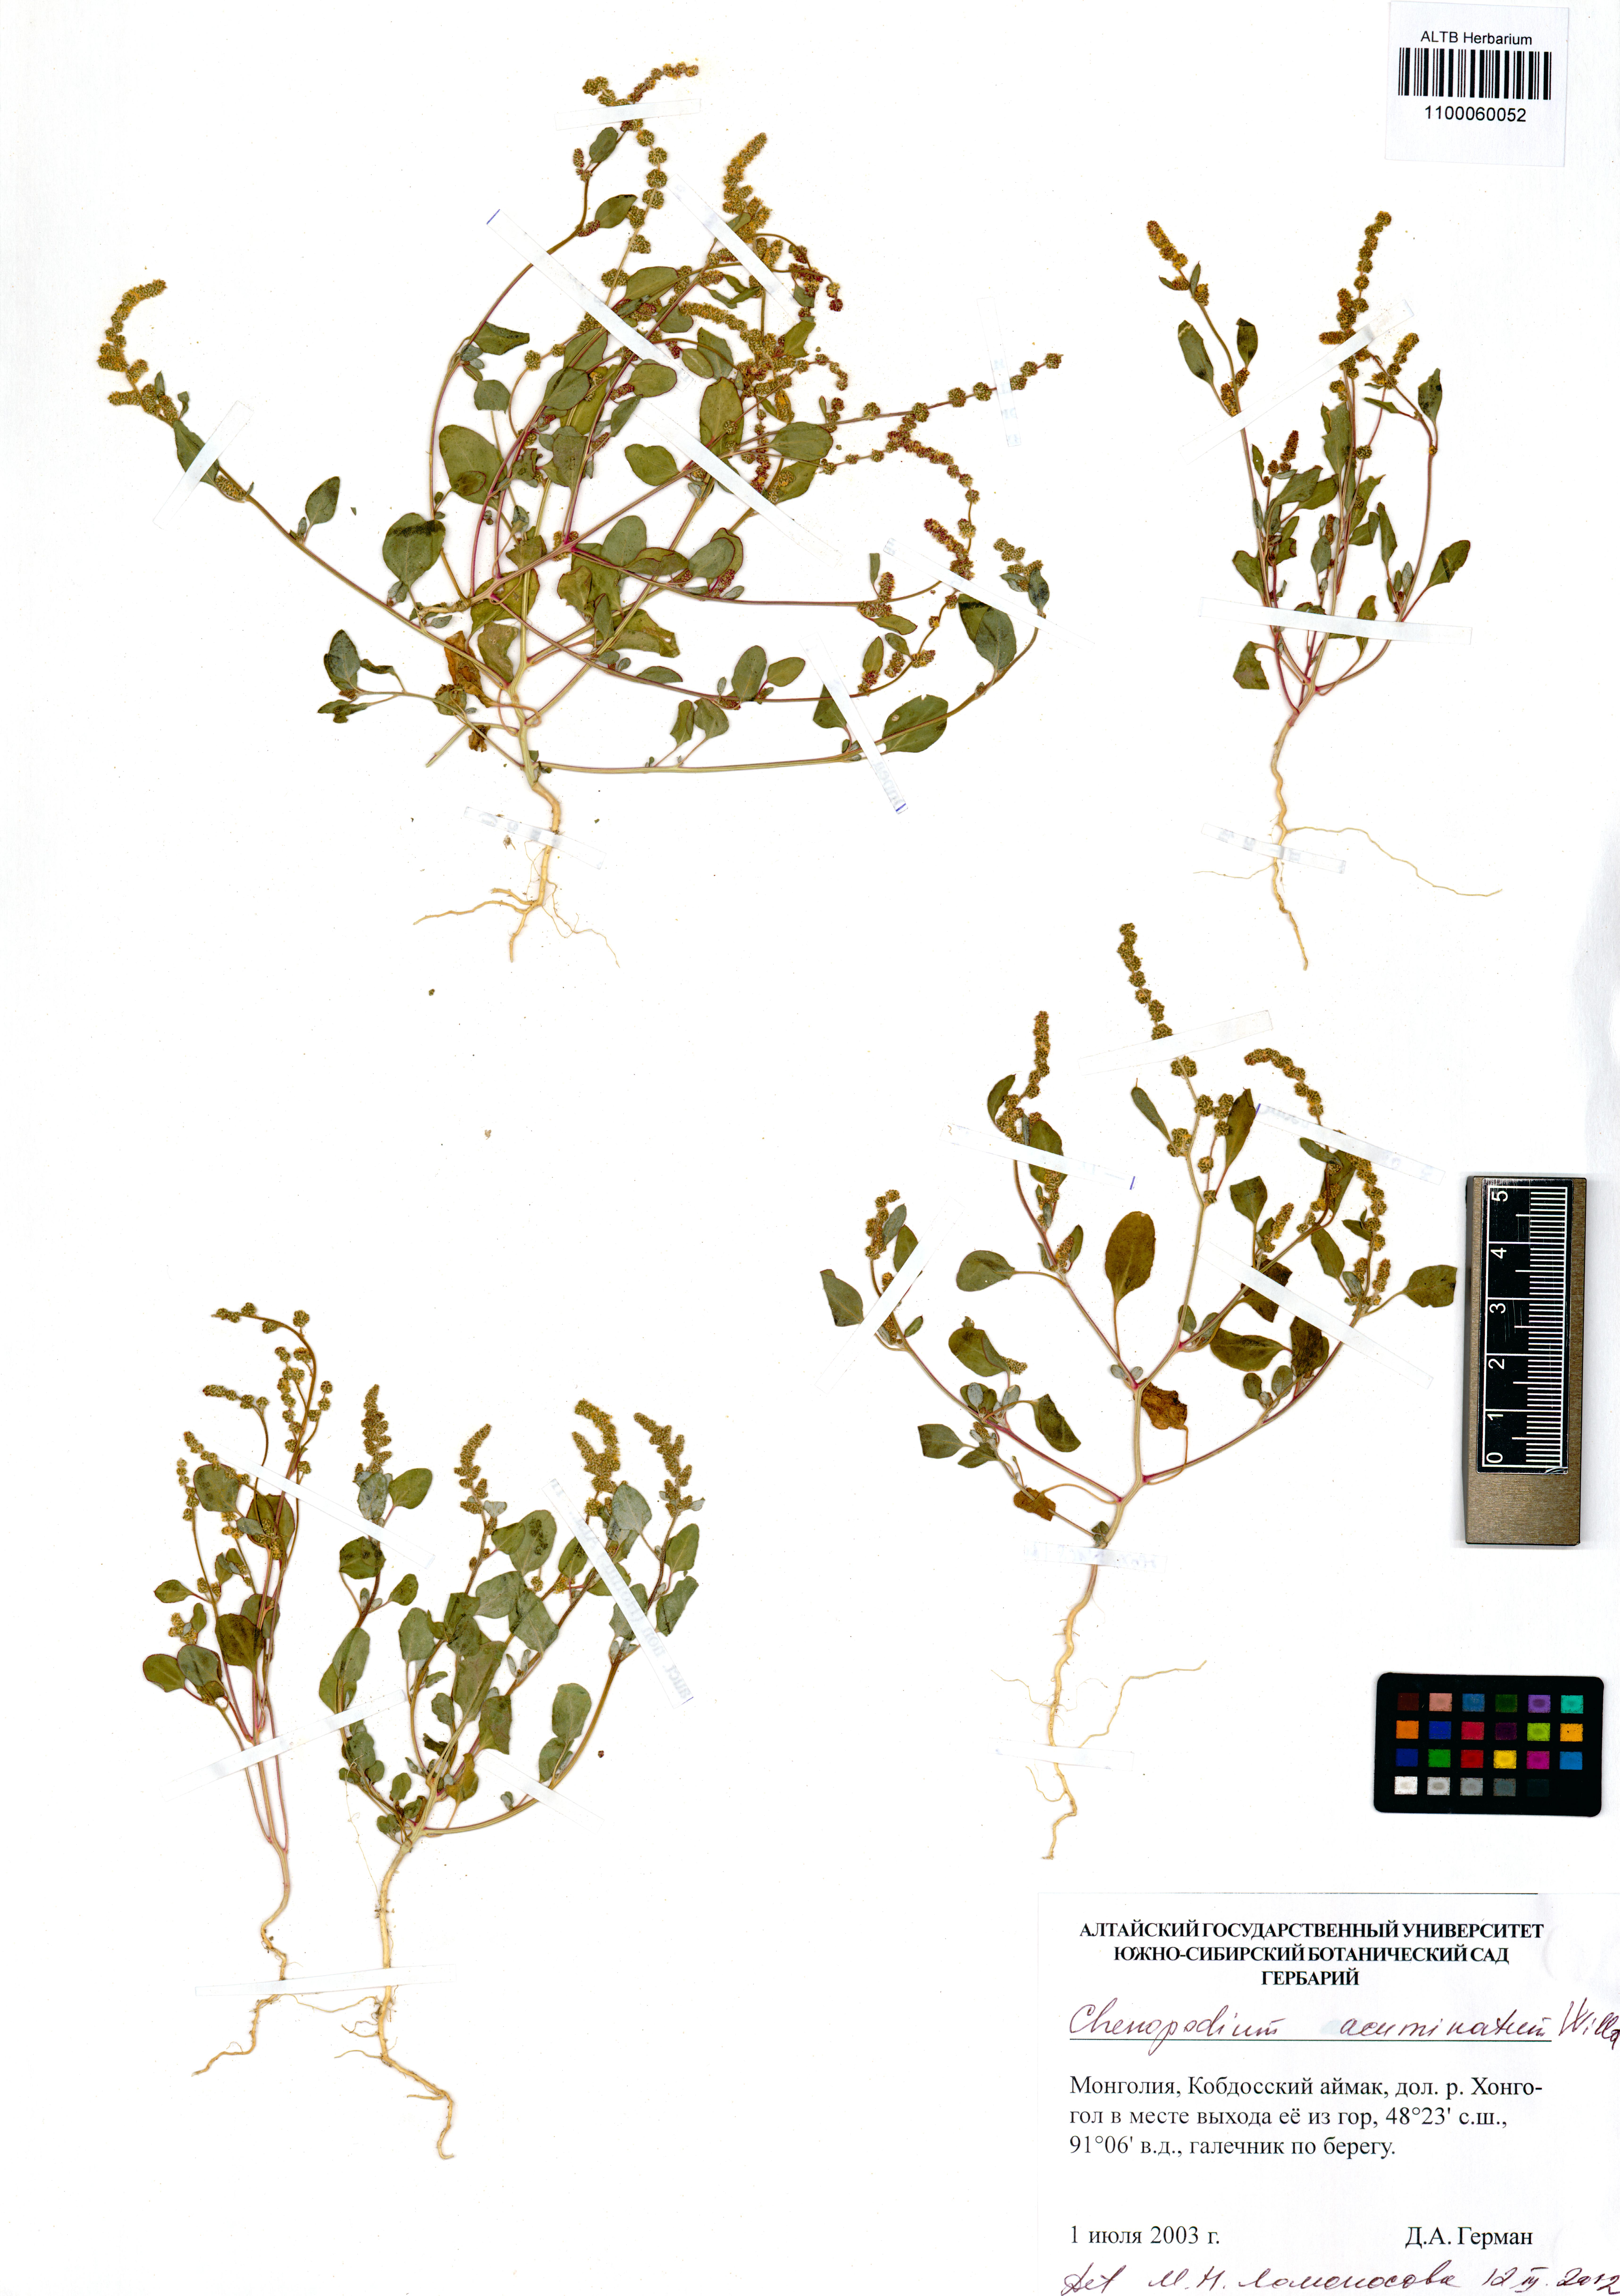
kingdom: Plantae
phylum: Tracheophyta
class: Magnoliopsida
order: Caryophyllales
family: Amaranthaceae
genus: Chenopodium
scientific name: Chenopodium acuminatum
